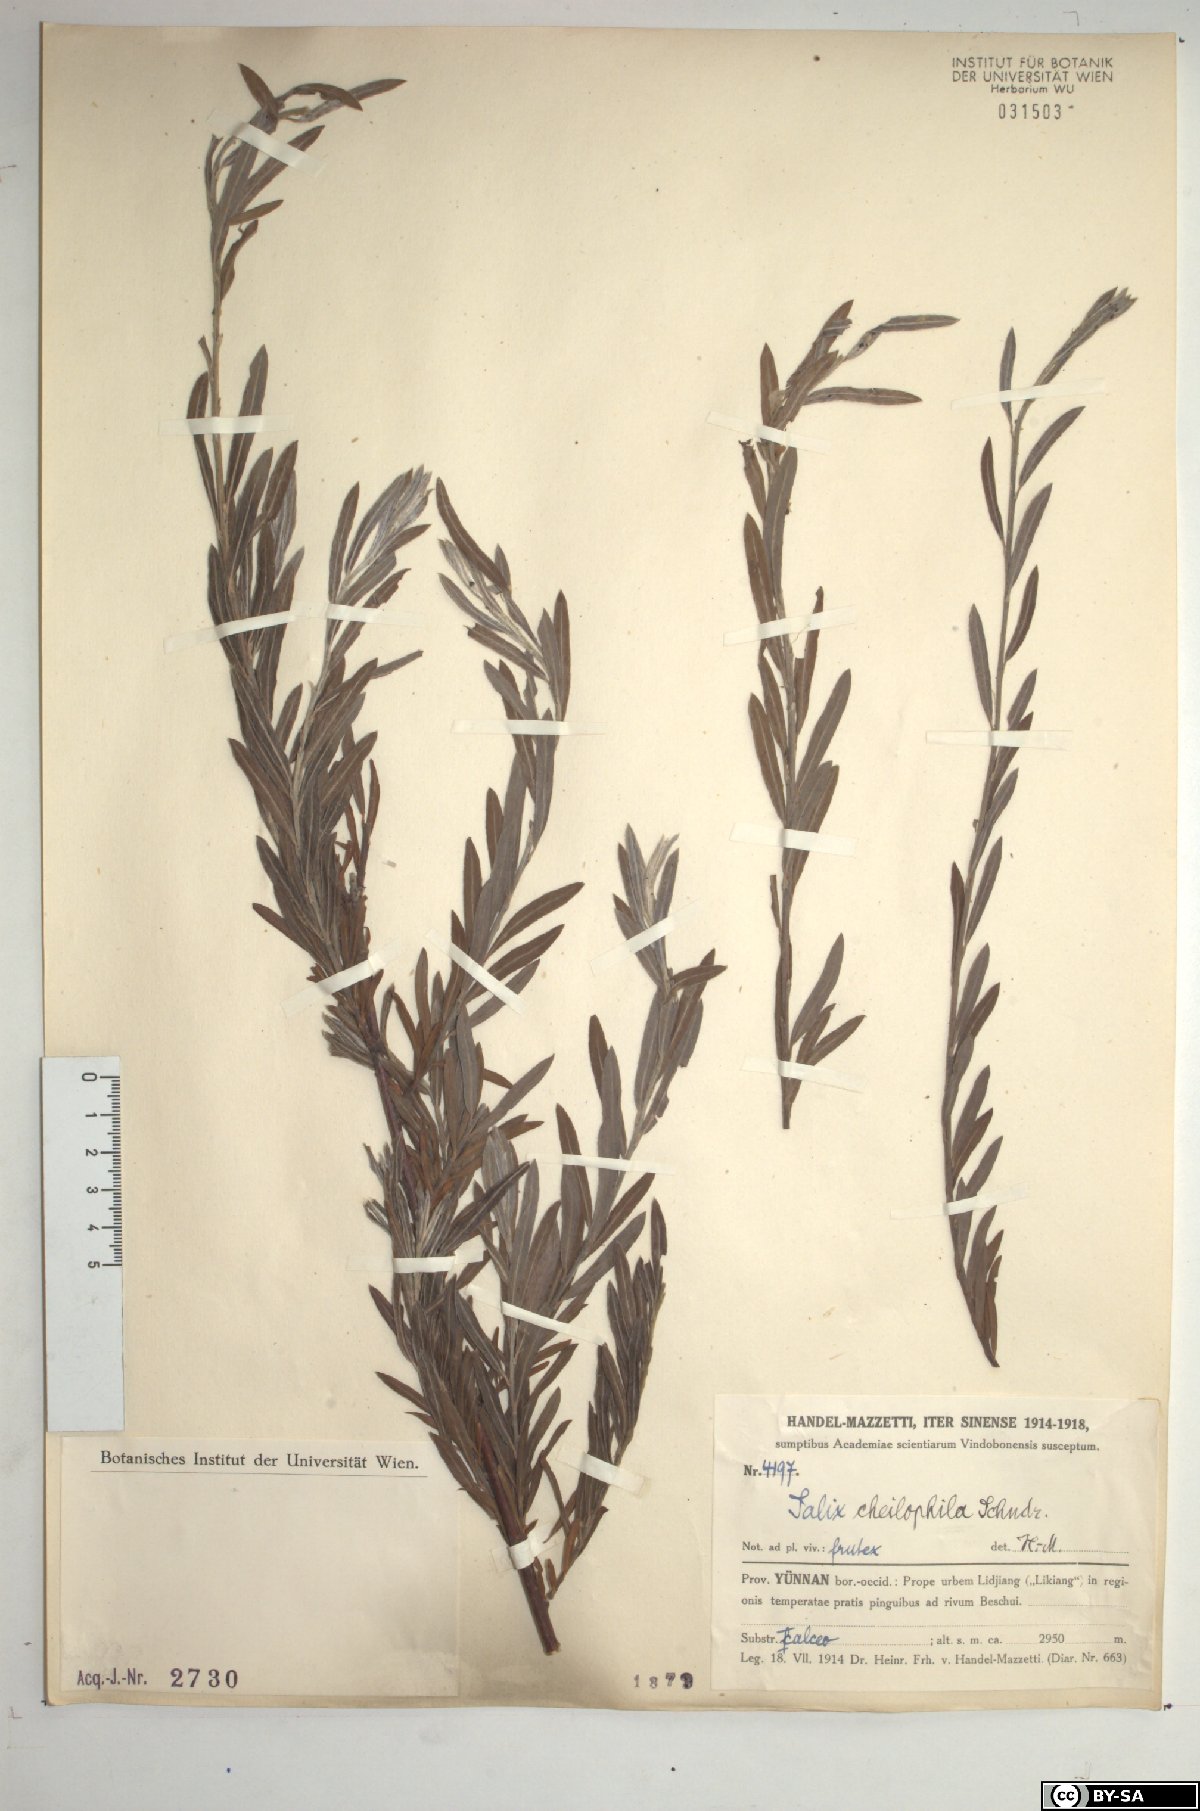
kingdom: Plantae
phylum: Tracheophyta
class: Magnoliopsida
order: Malpighiales
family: Salicaceae
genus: Salix
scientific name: Salix cheilophila
